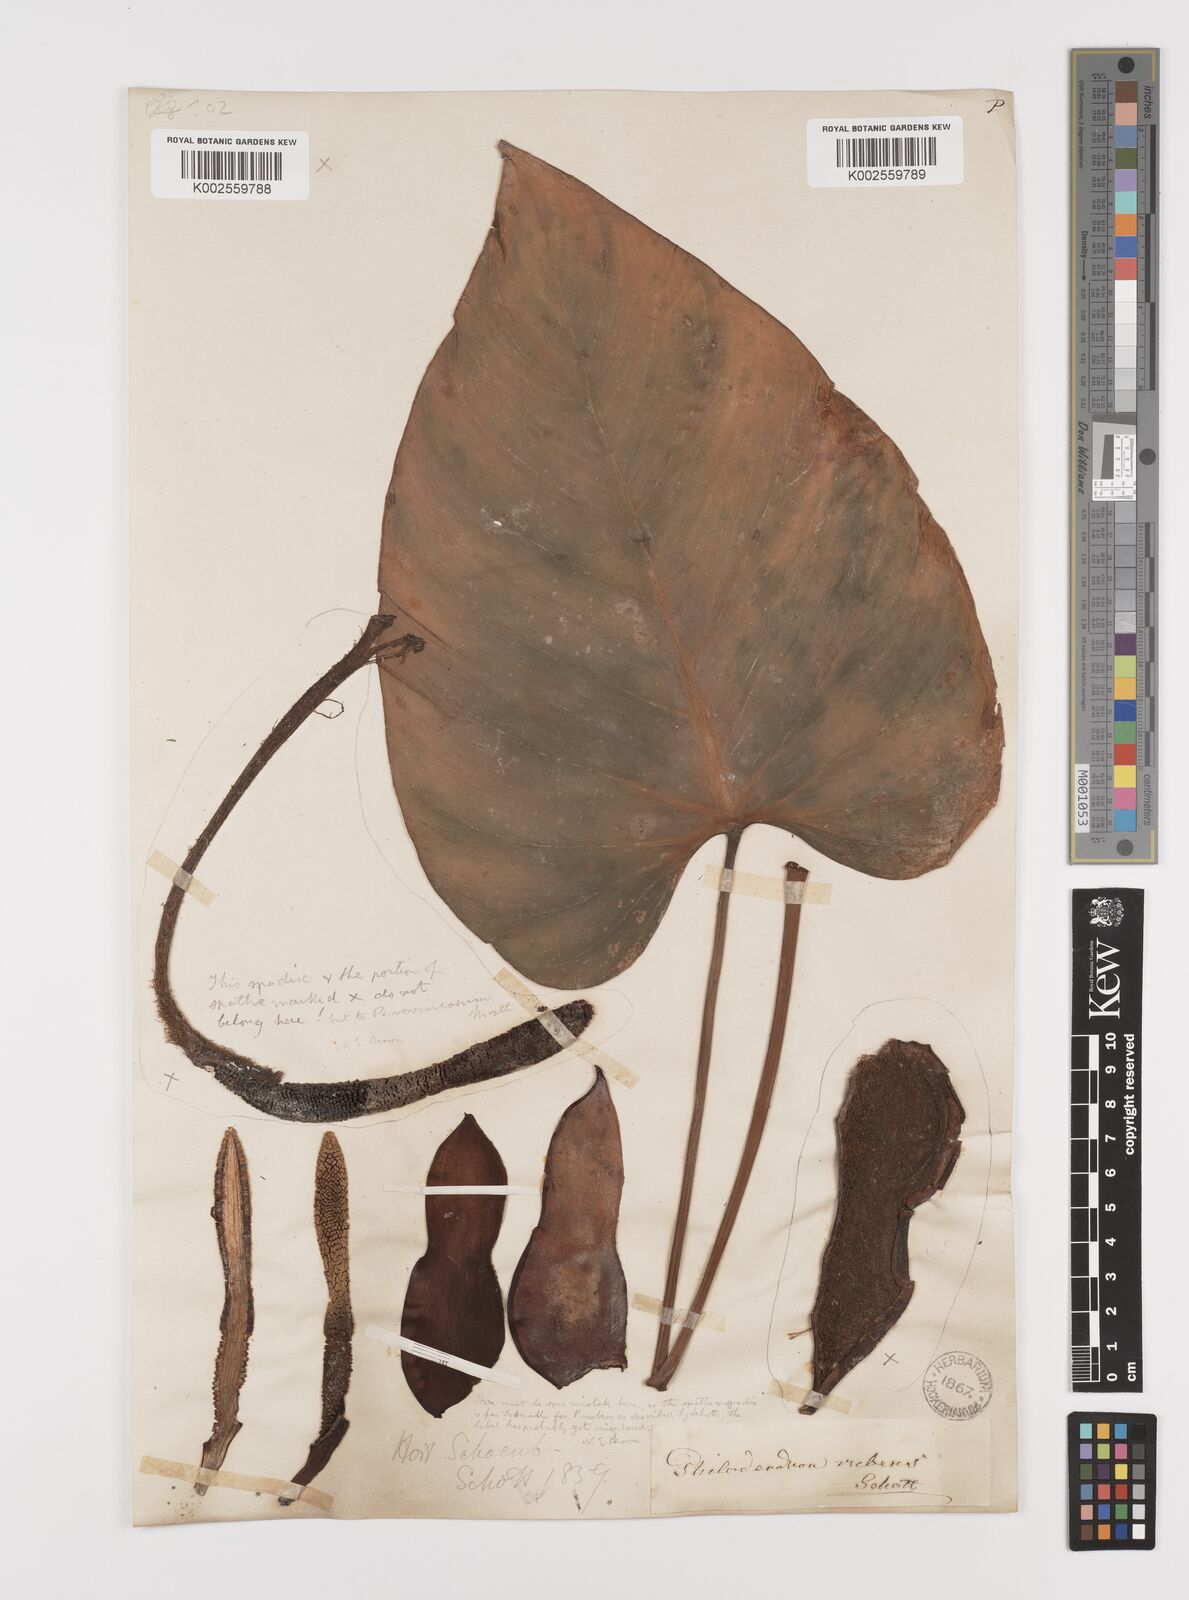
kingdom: Plantae
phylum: Tracheophyta
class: Liliopsida
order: Alismatales
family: Araceae
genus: Philodendron
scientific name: Philodendron ornatum
